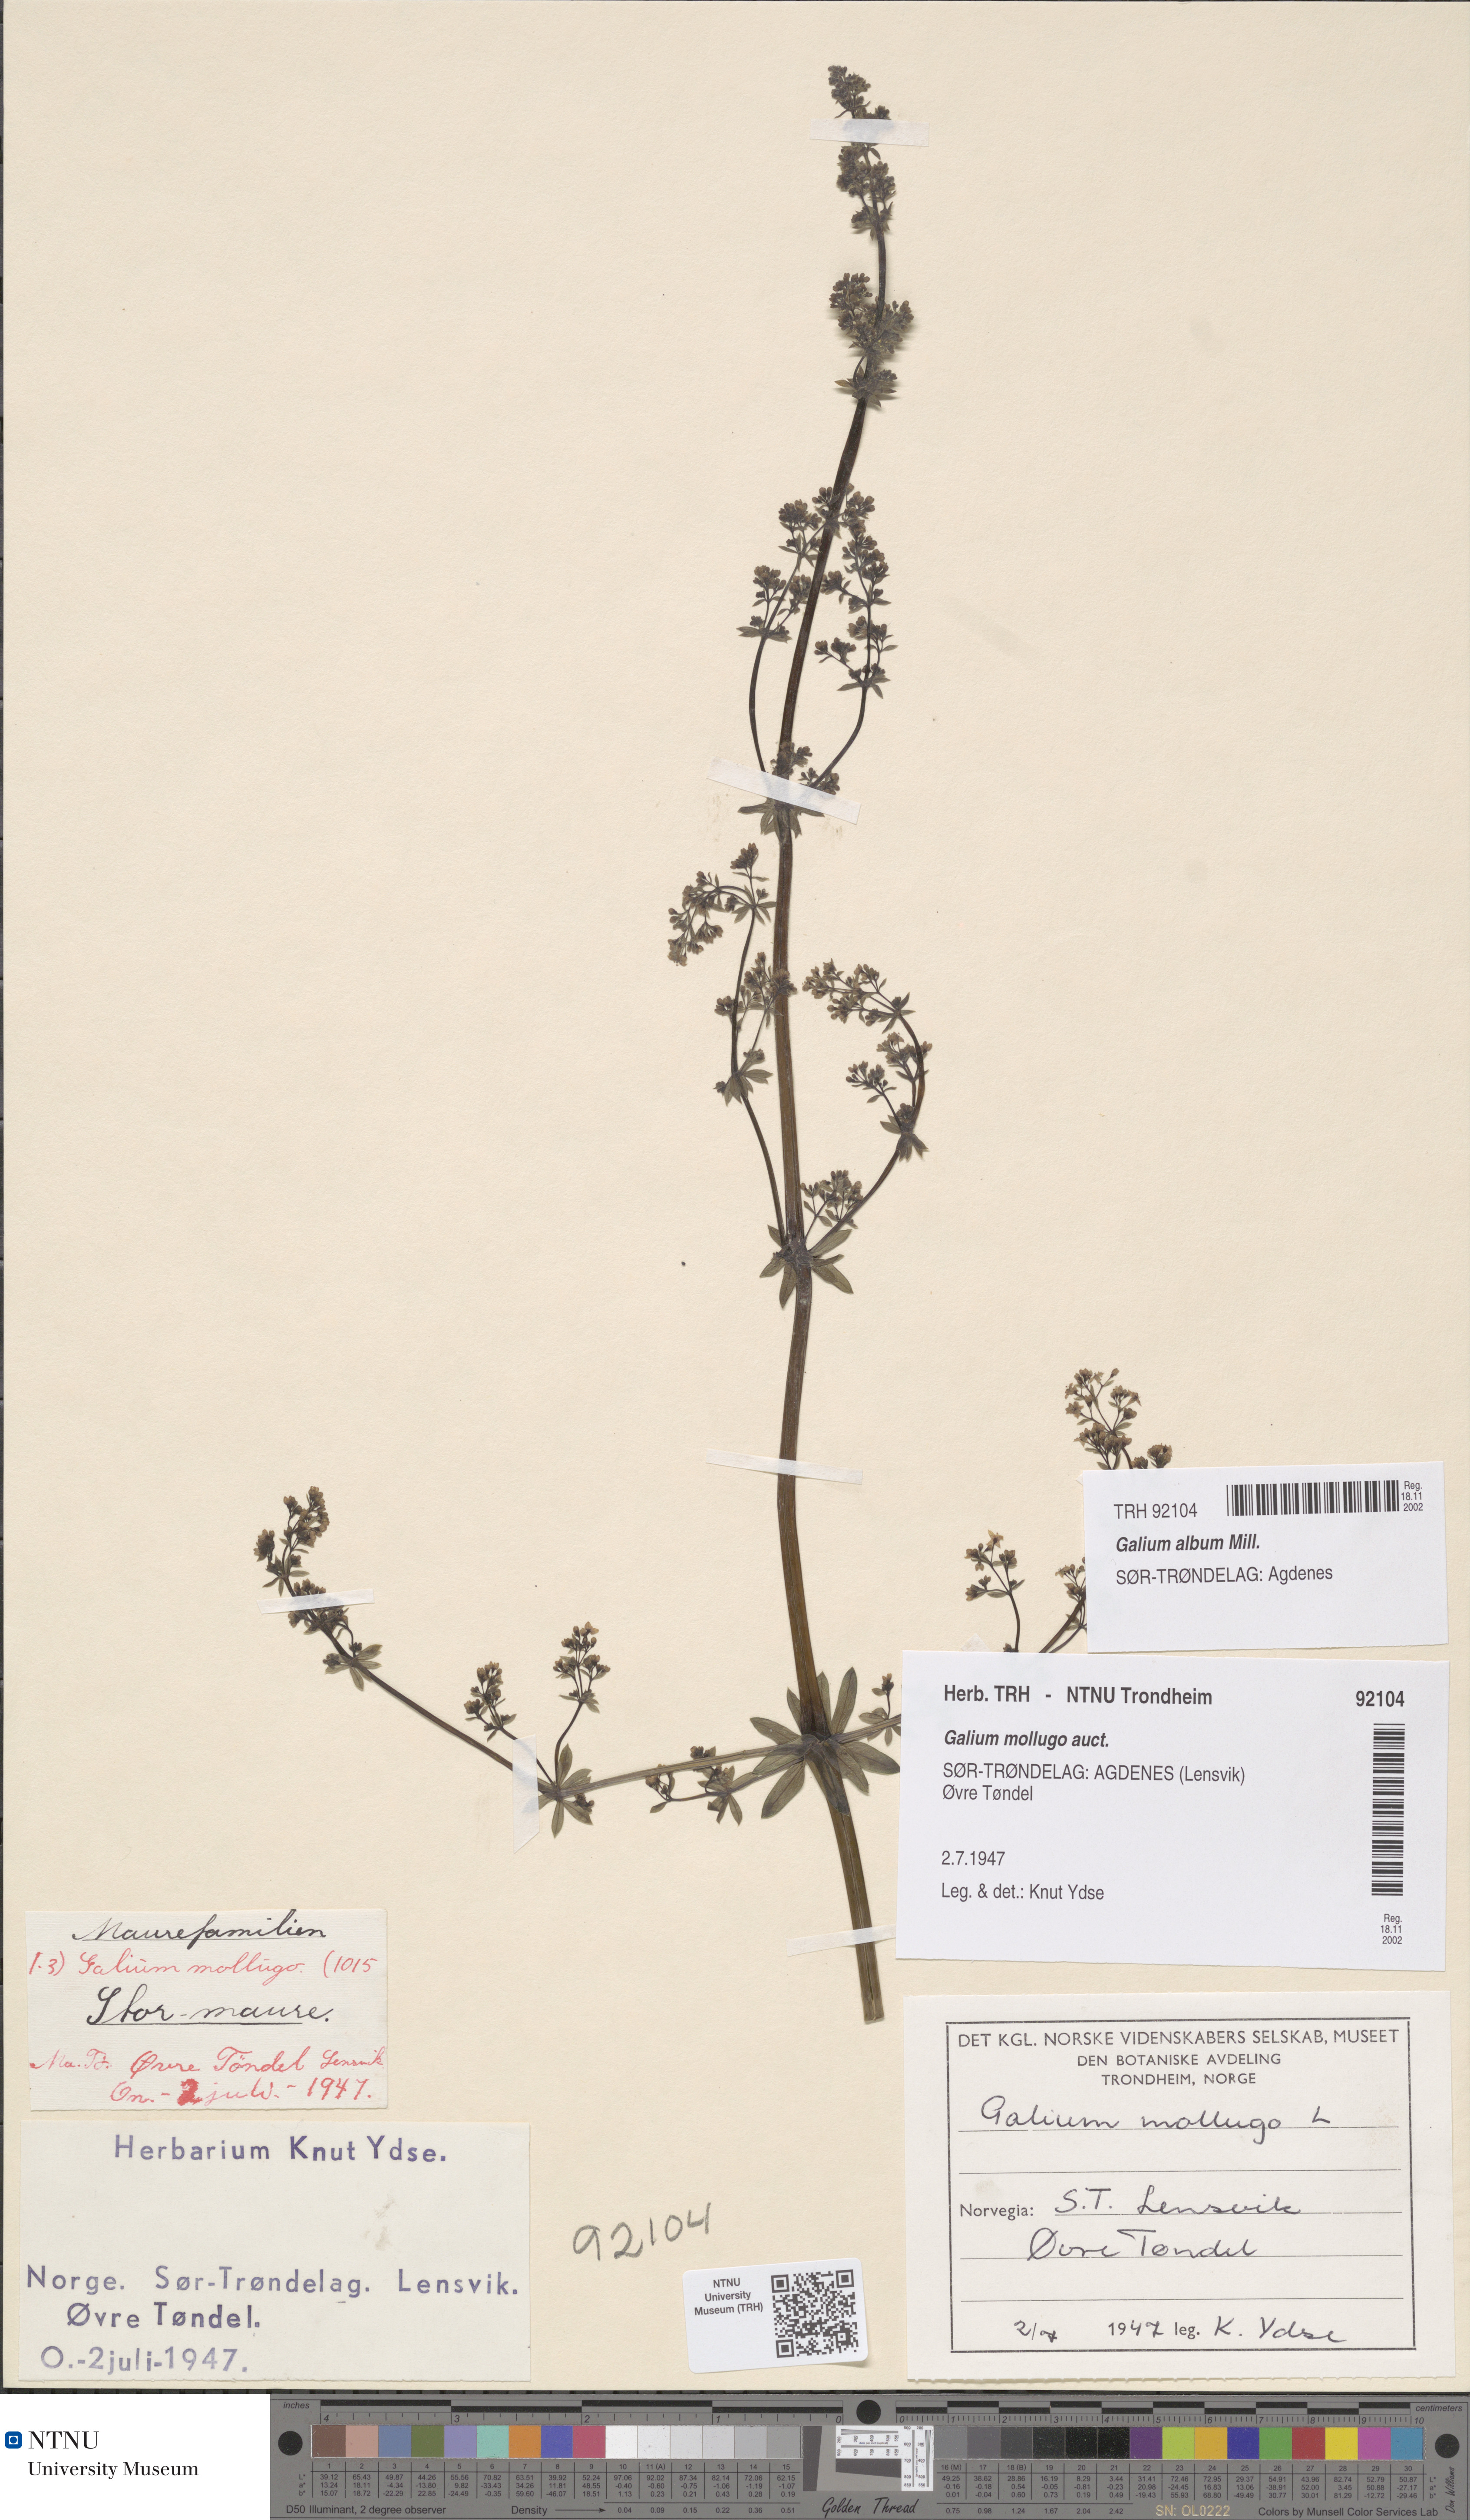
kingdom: Plantae
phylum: Tracheophyta
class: Magnoliopsida
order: Gentianales
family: Rubiaceae
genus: Galium
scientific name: Galium album
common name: White bedstraw
